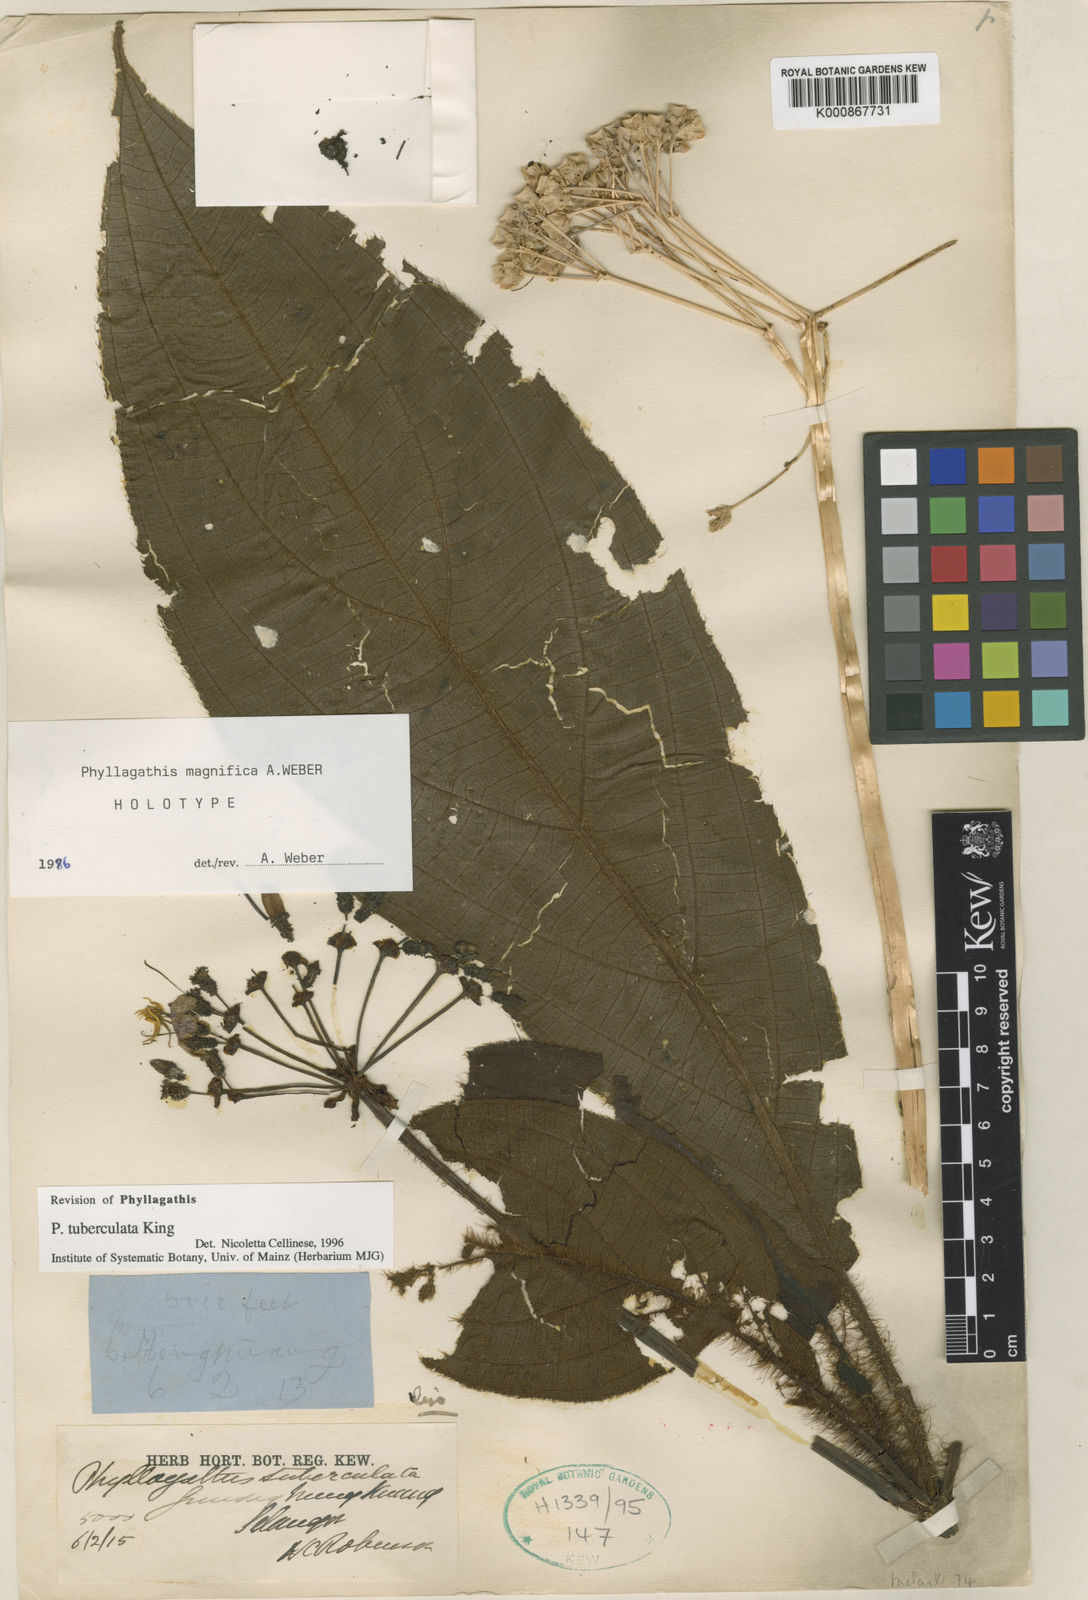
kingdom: Plantae
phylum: Tracheophyta
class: Magnoliopsida
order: Myrtales
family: Melastomataceae
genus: Phyllagathis
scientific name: Phyllagathis tuberculata
